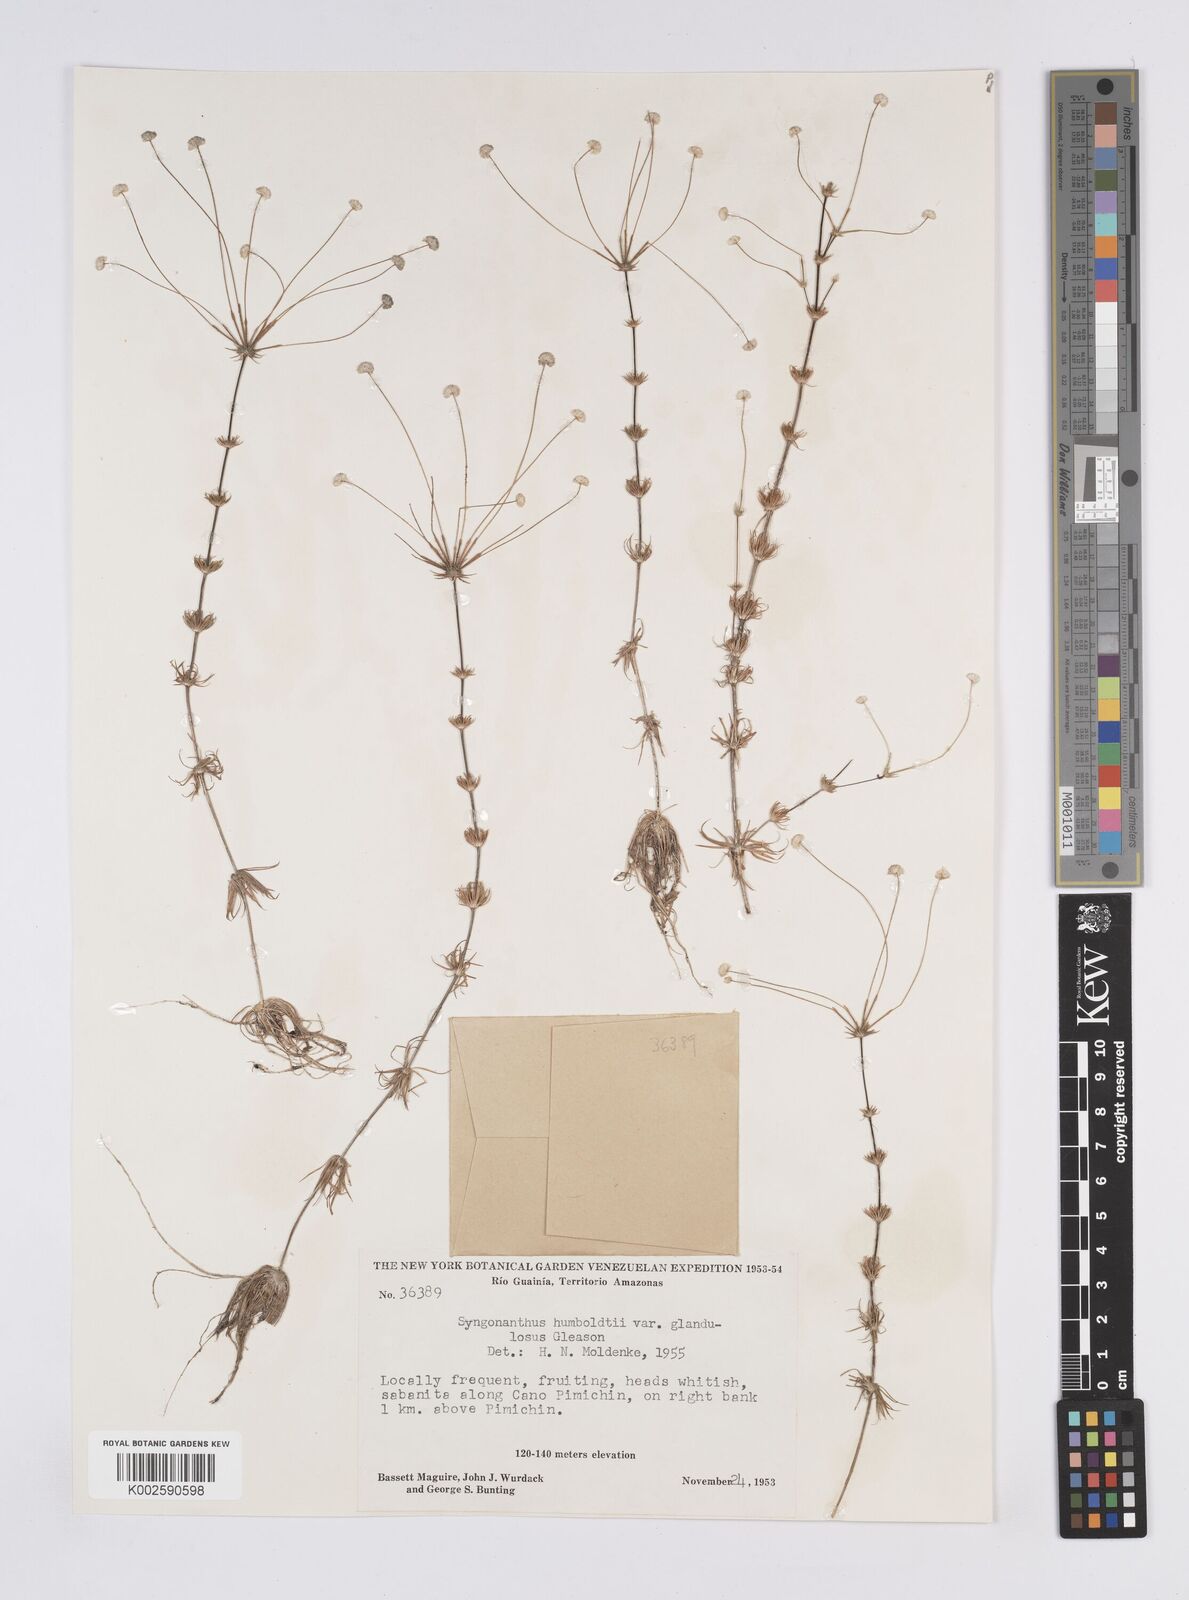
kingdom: Plantae
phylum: Tracheophyta
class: Liliopsida
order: Poales
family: Eriocaulaceae
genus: Syngonanthus
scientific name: Syngonanthus humboldtii
